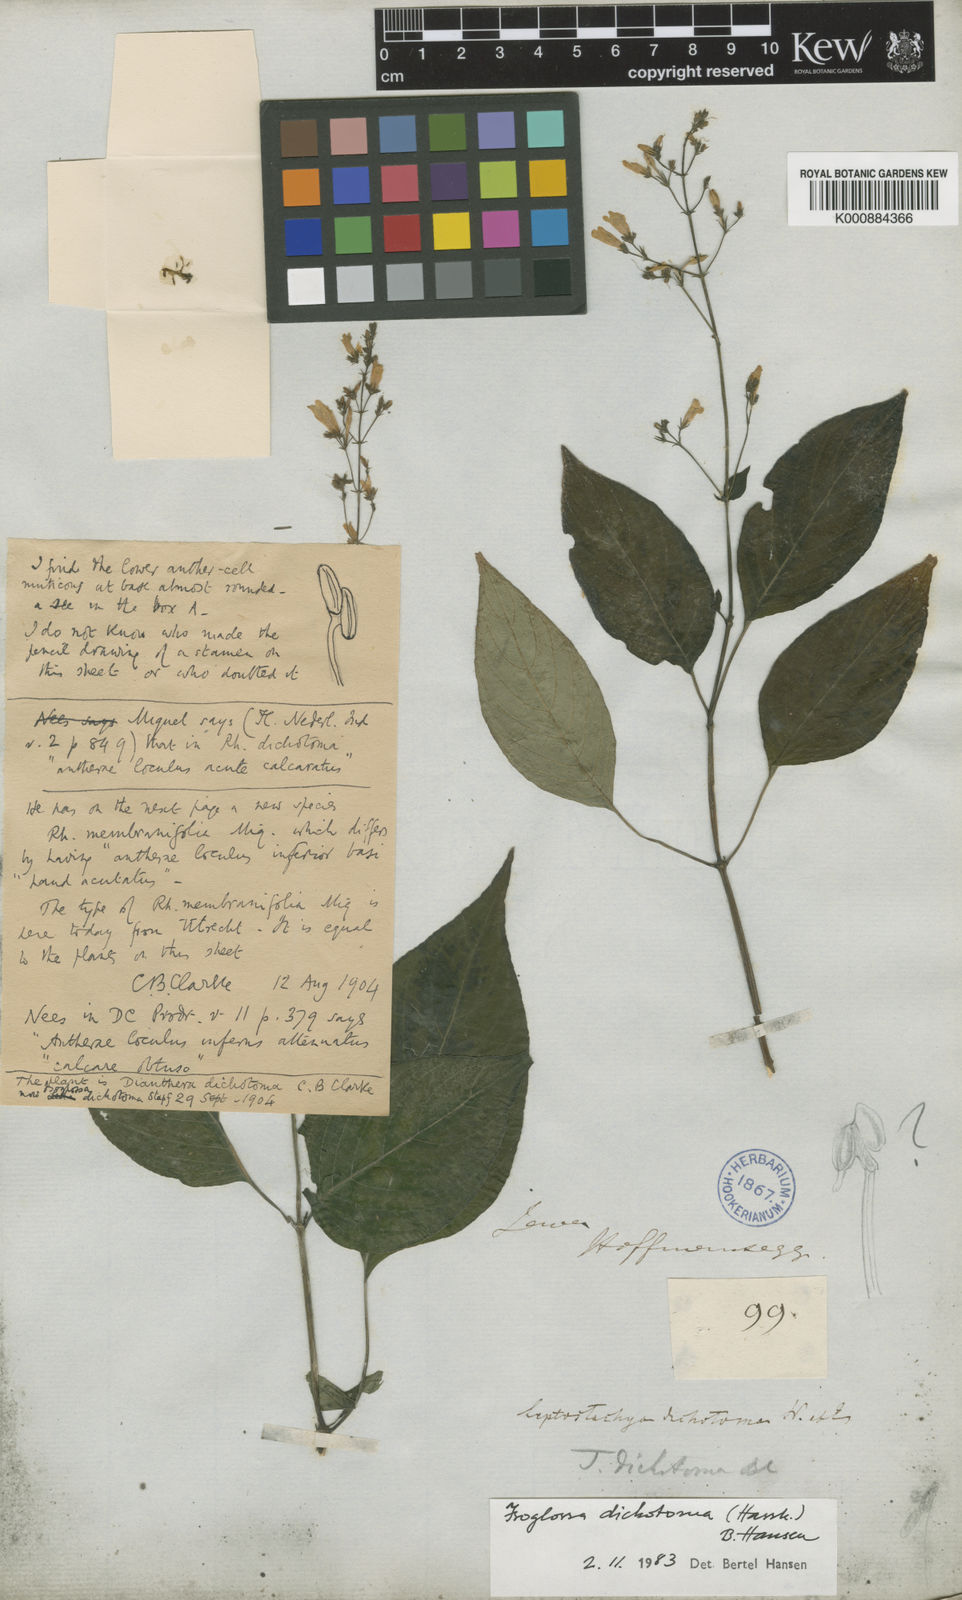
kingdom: Plantae
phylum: Tracheophyta
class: Magnoliopsida
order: Lamiales
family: Acanthaceae
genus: Isoglossa
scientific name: Isoglossa dichotoma
